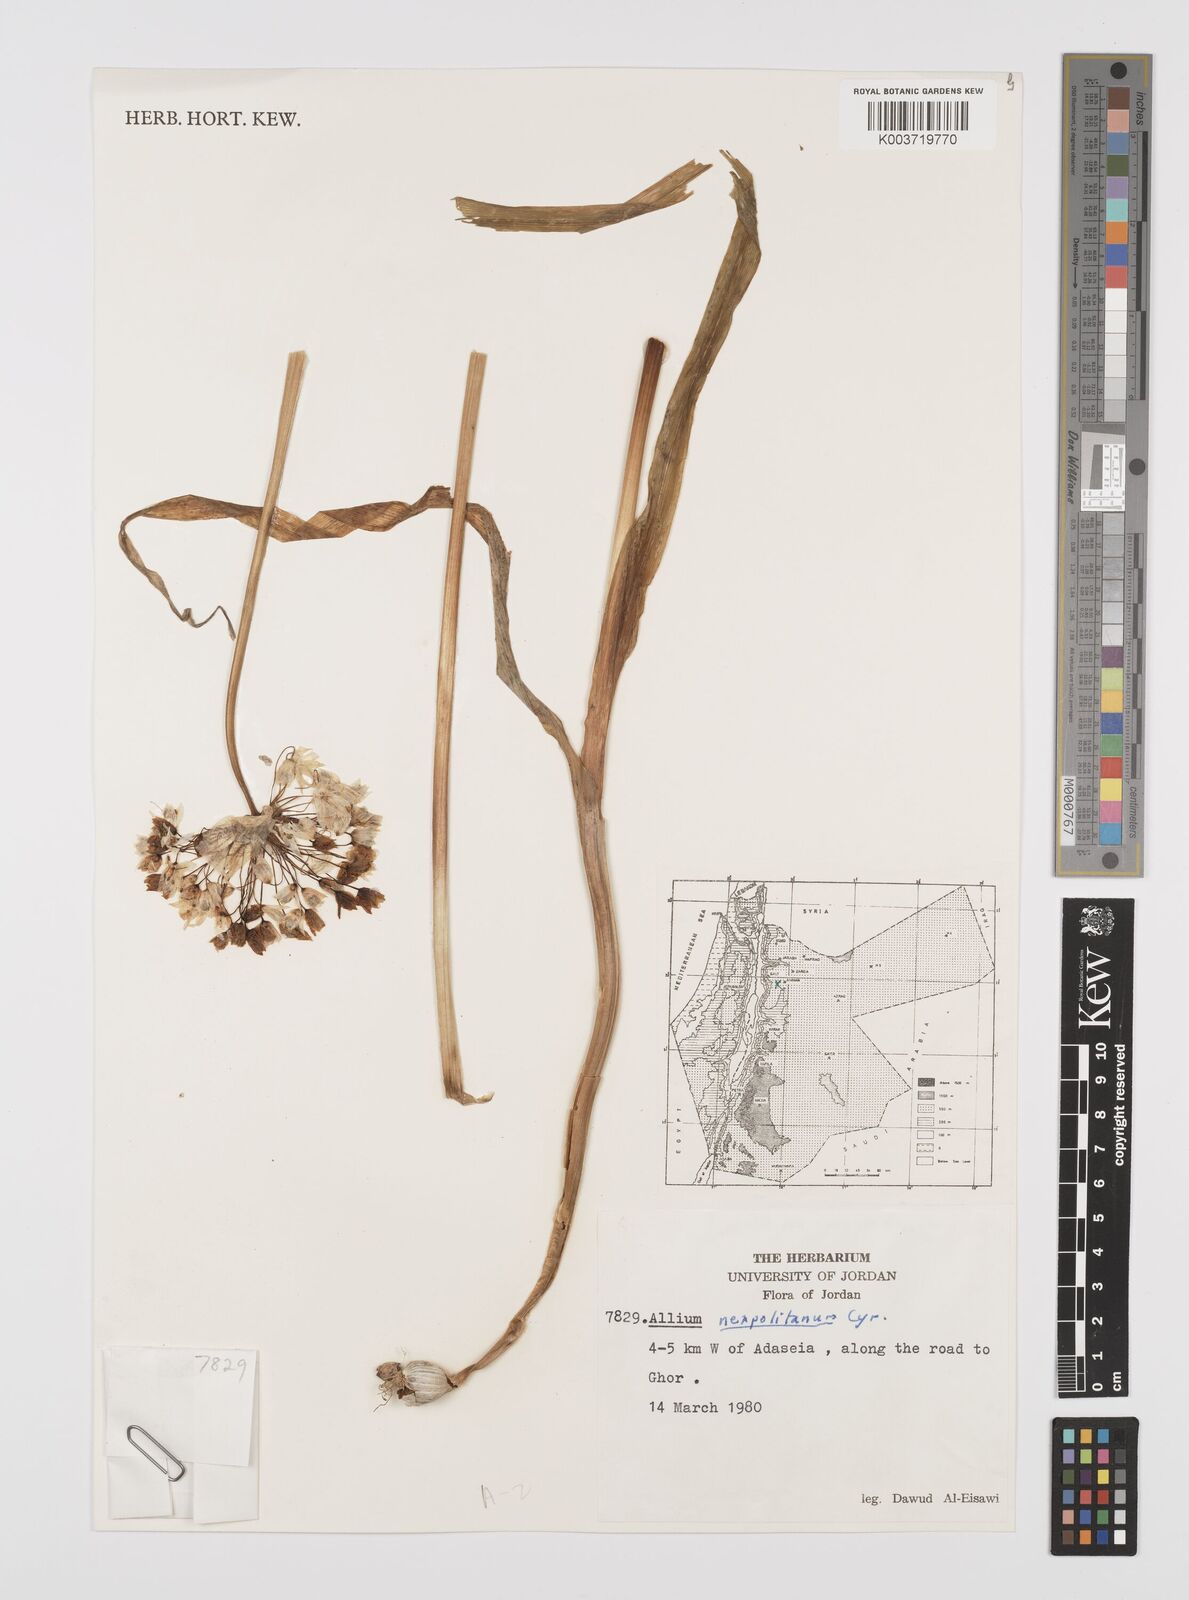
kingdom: Plantae
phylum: Tracheophyta
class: Liliopsida
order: Asparagales
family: Amaryllidaceae
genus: Allium
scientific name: Allium neapolitanum
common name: Neapolitan garlic
